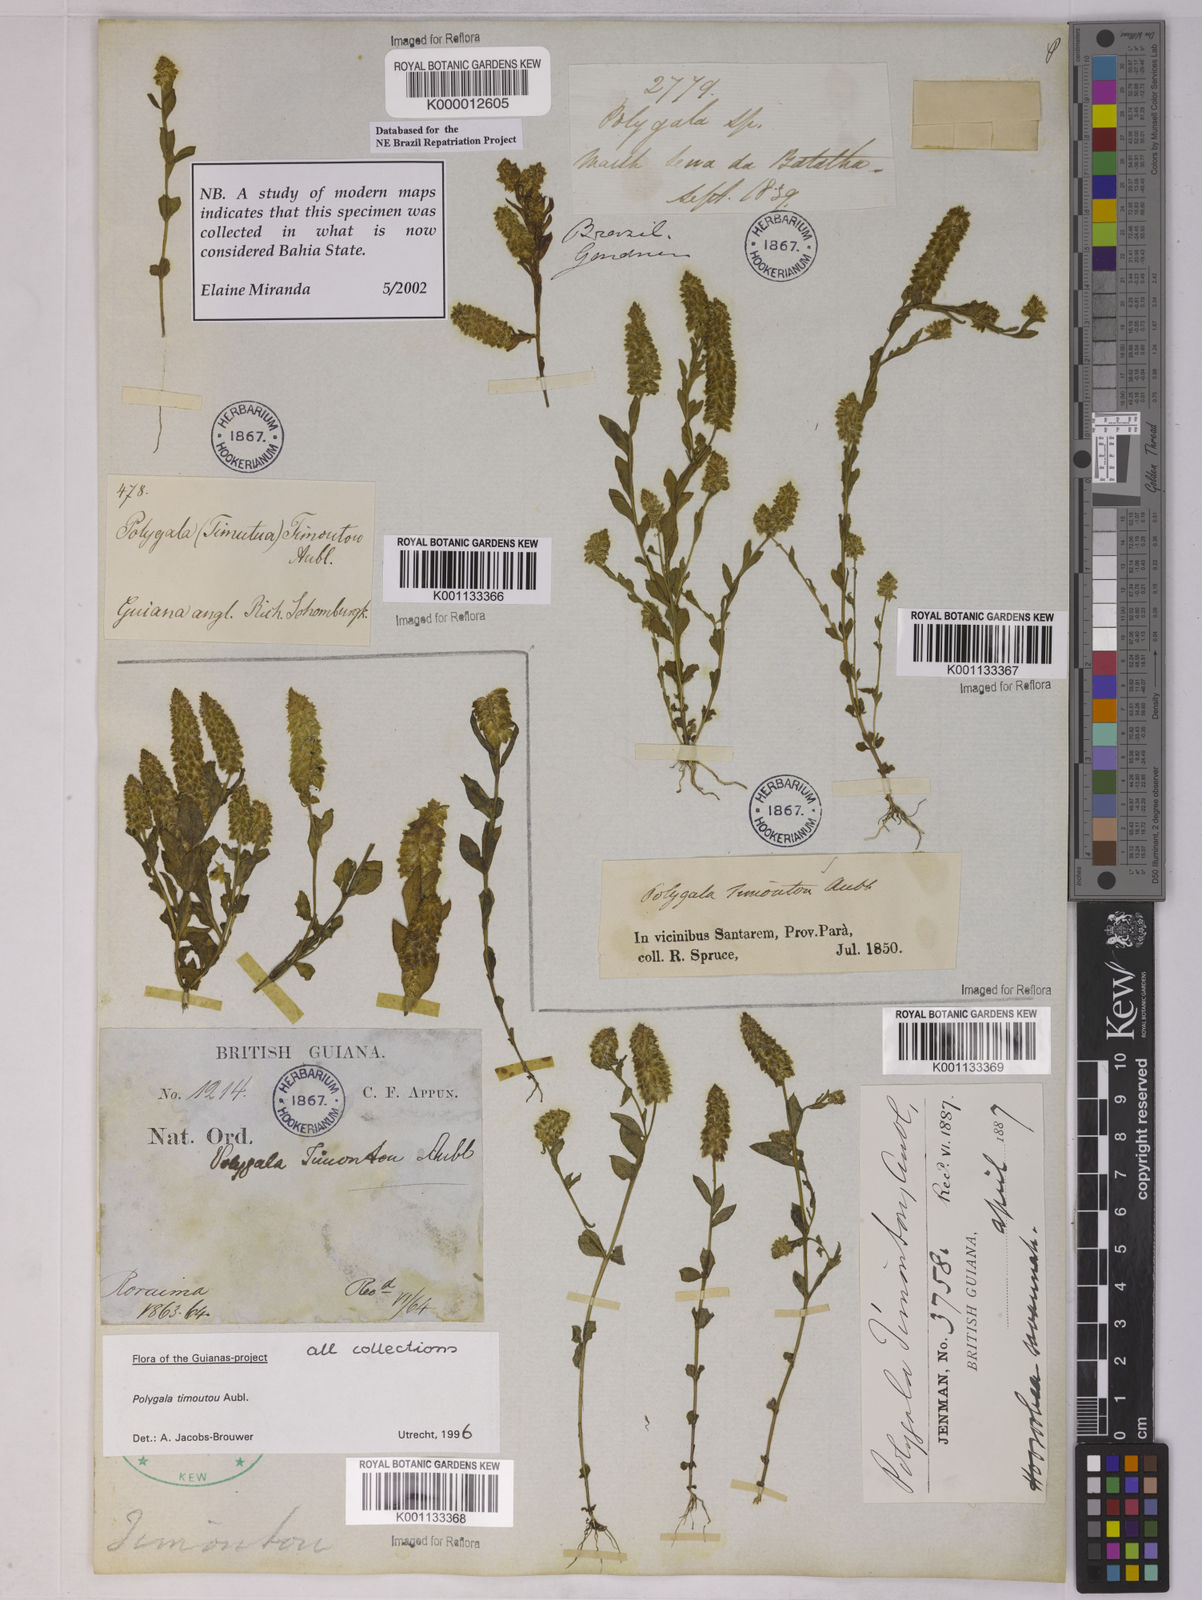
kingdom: Plantae
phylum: Tracheophyta
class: Magnoliopsida
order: Fabales
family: Polygalaceae
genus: Polygala
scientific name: Polygala timoutoides
